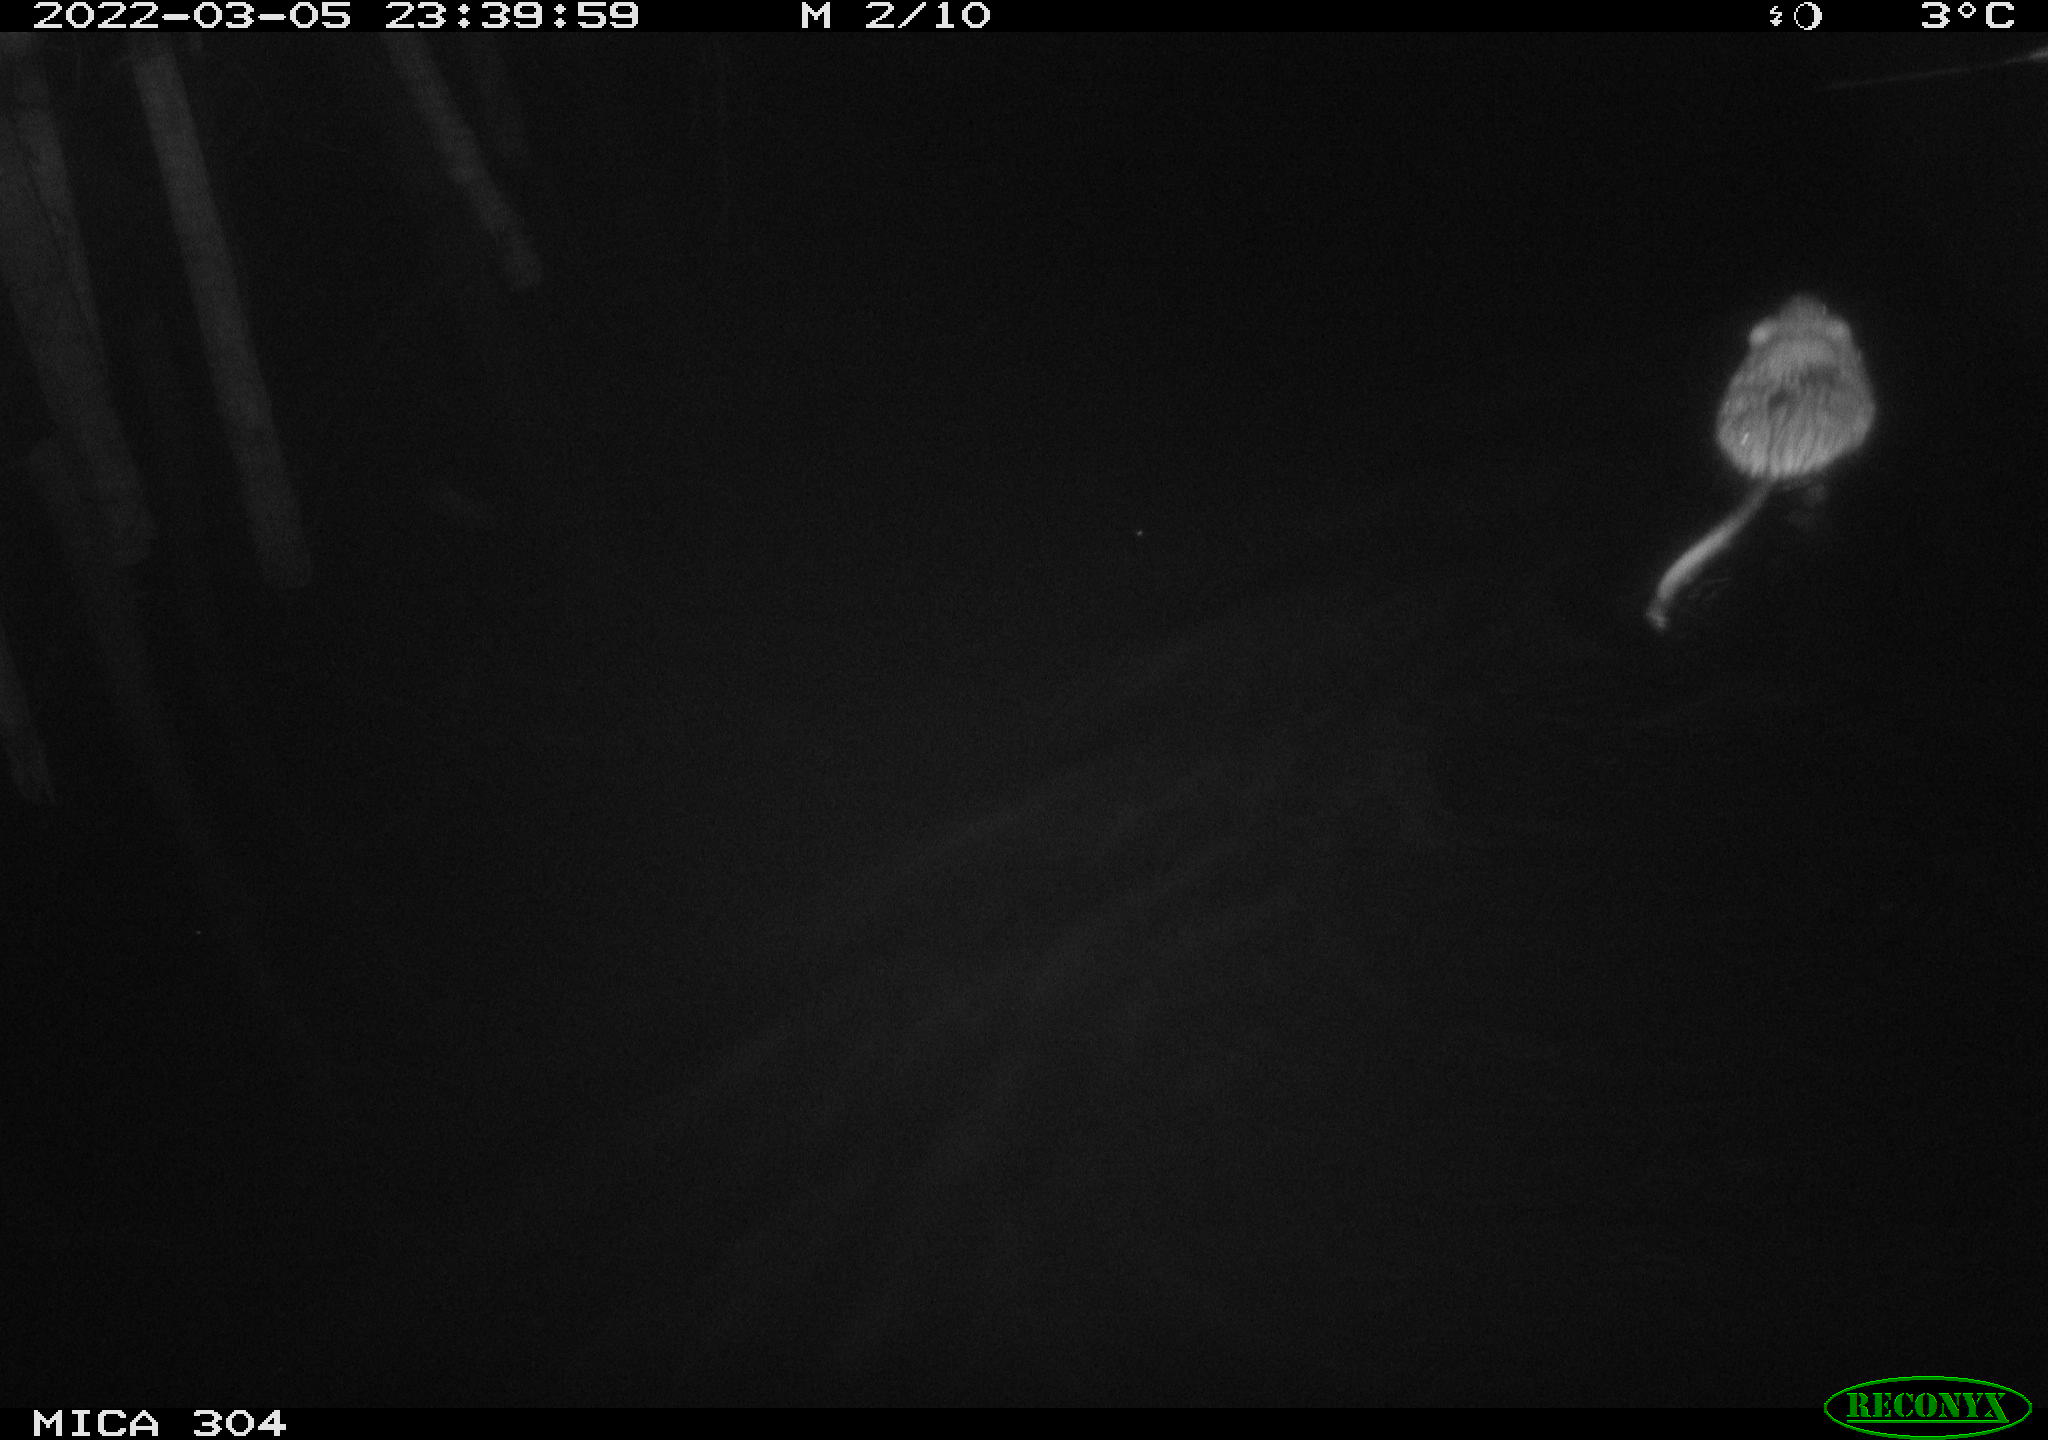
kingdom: Animalia
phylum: Chordata
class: Mammalia
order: Rodentia
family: Cricetidae
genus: Ondatra
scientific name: Ondatra zibethicus
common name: Muskrat
